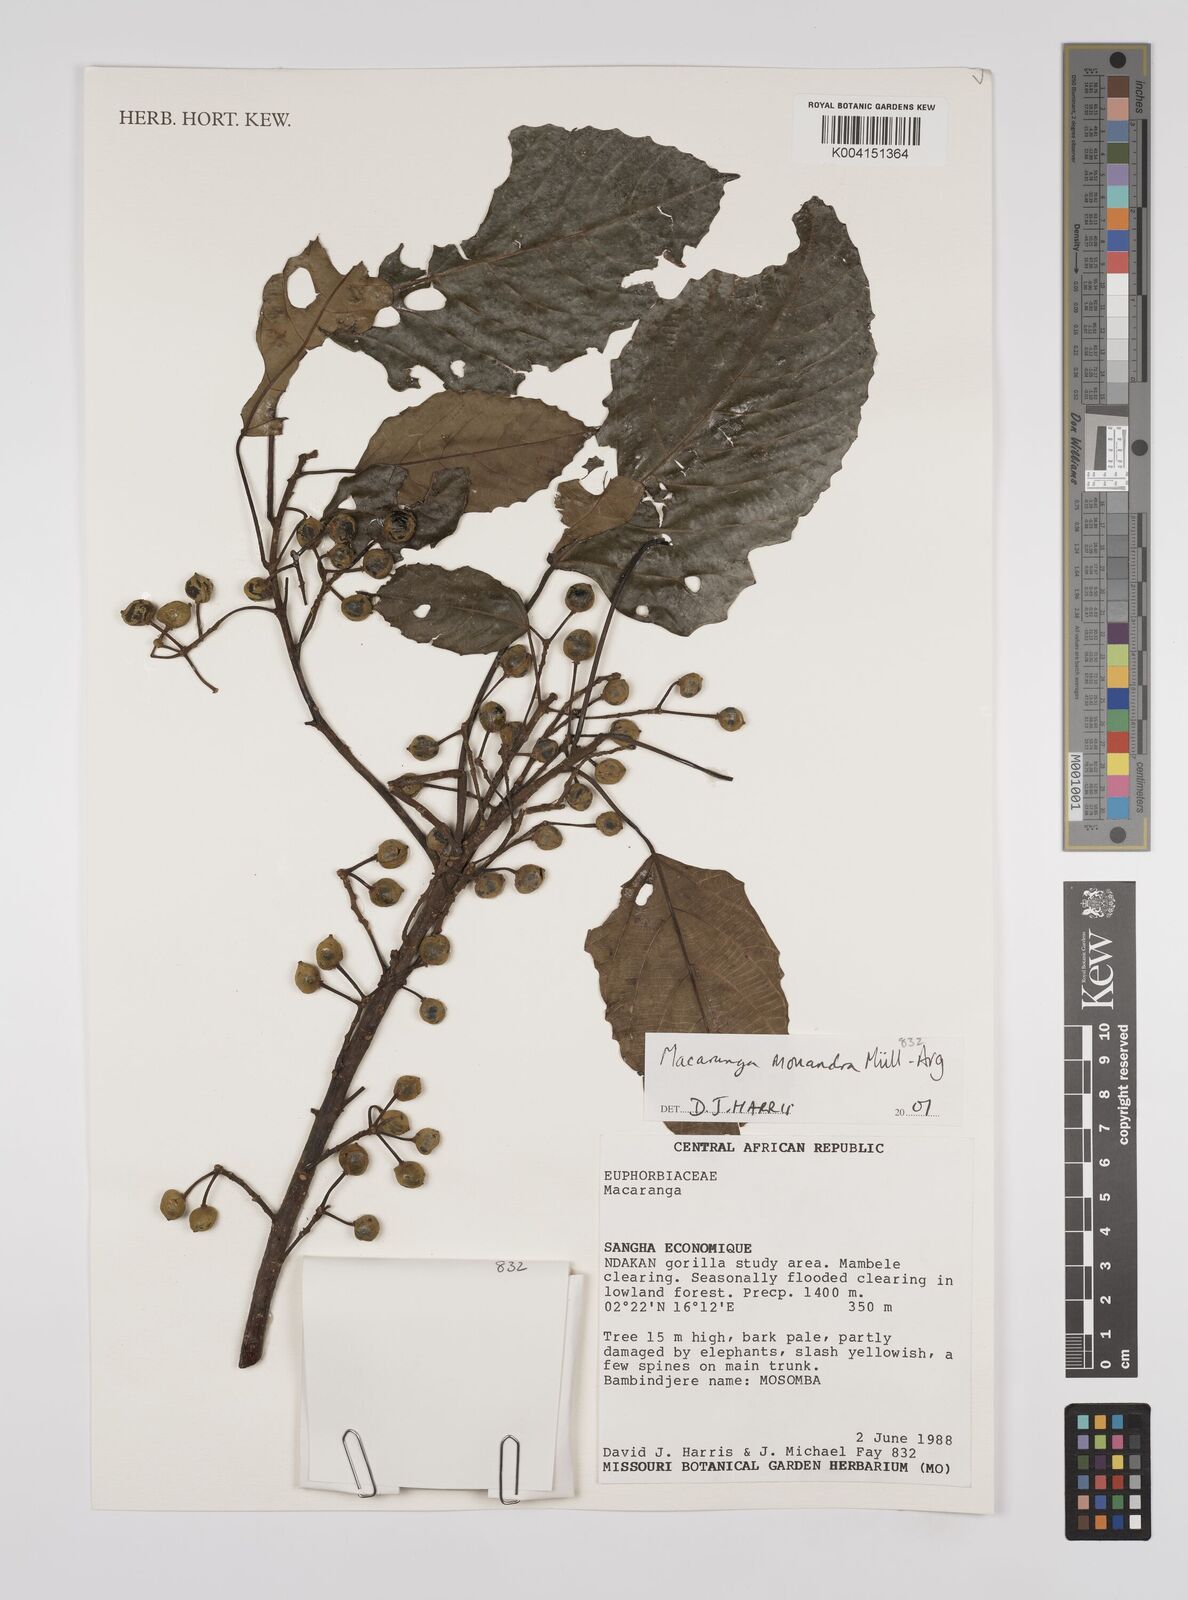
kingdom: Plantae
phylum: Tracheophyta
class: Magnoliopsida
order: Malpighiales
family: Euphorbiaceae
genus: Macaranga
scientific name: Macaranga monandra
